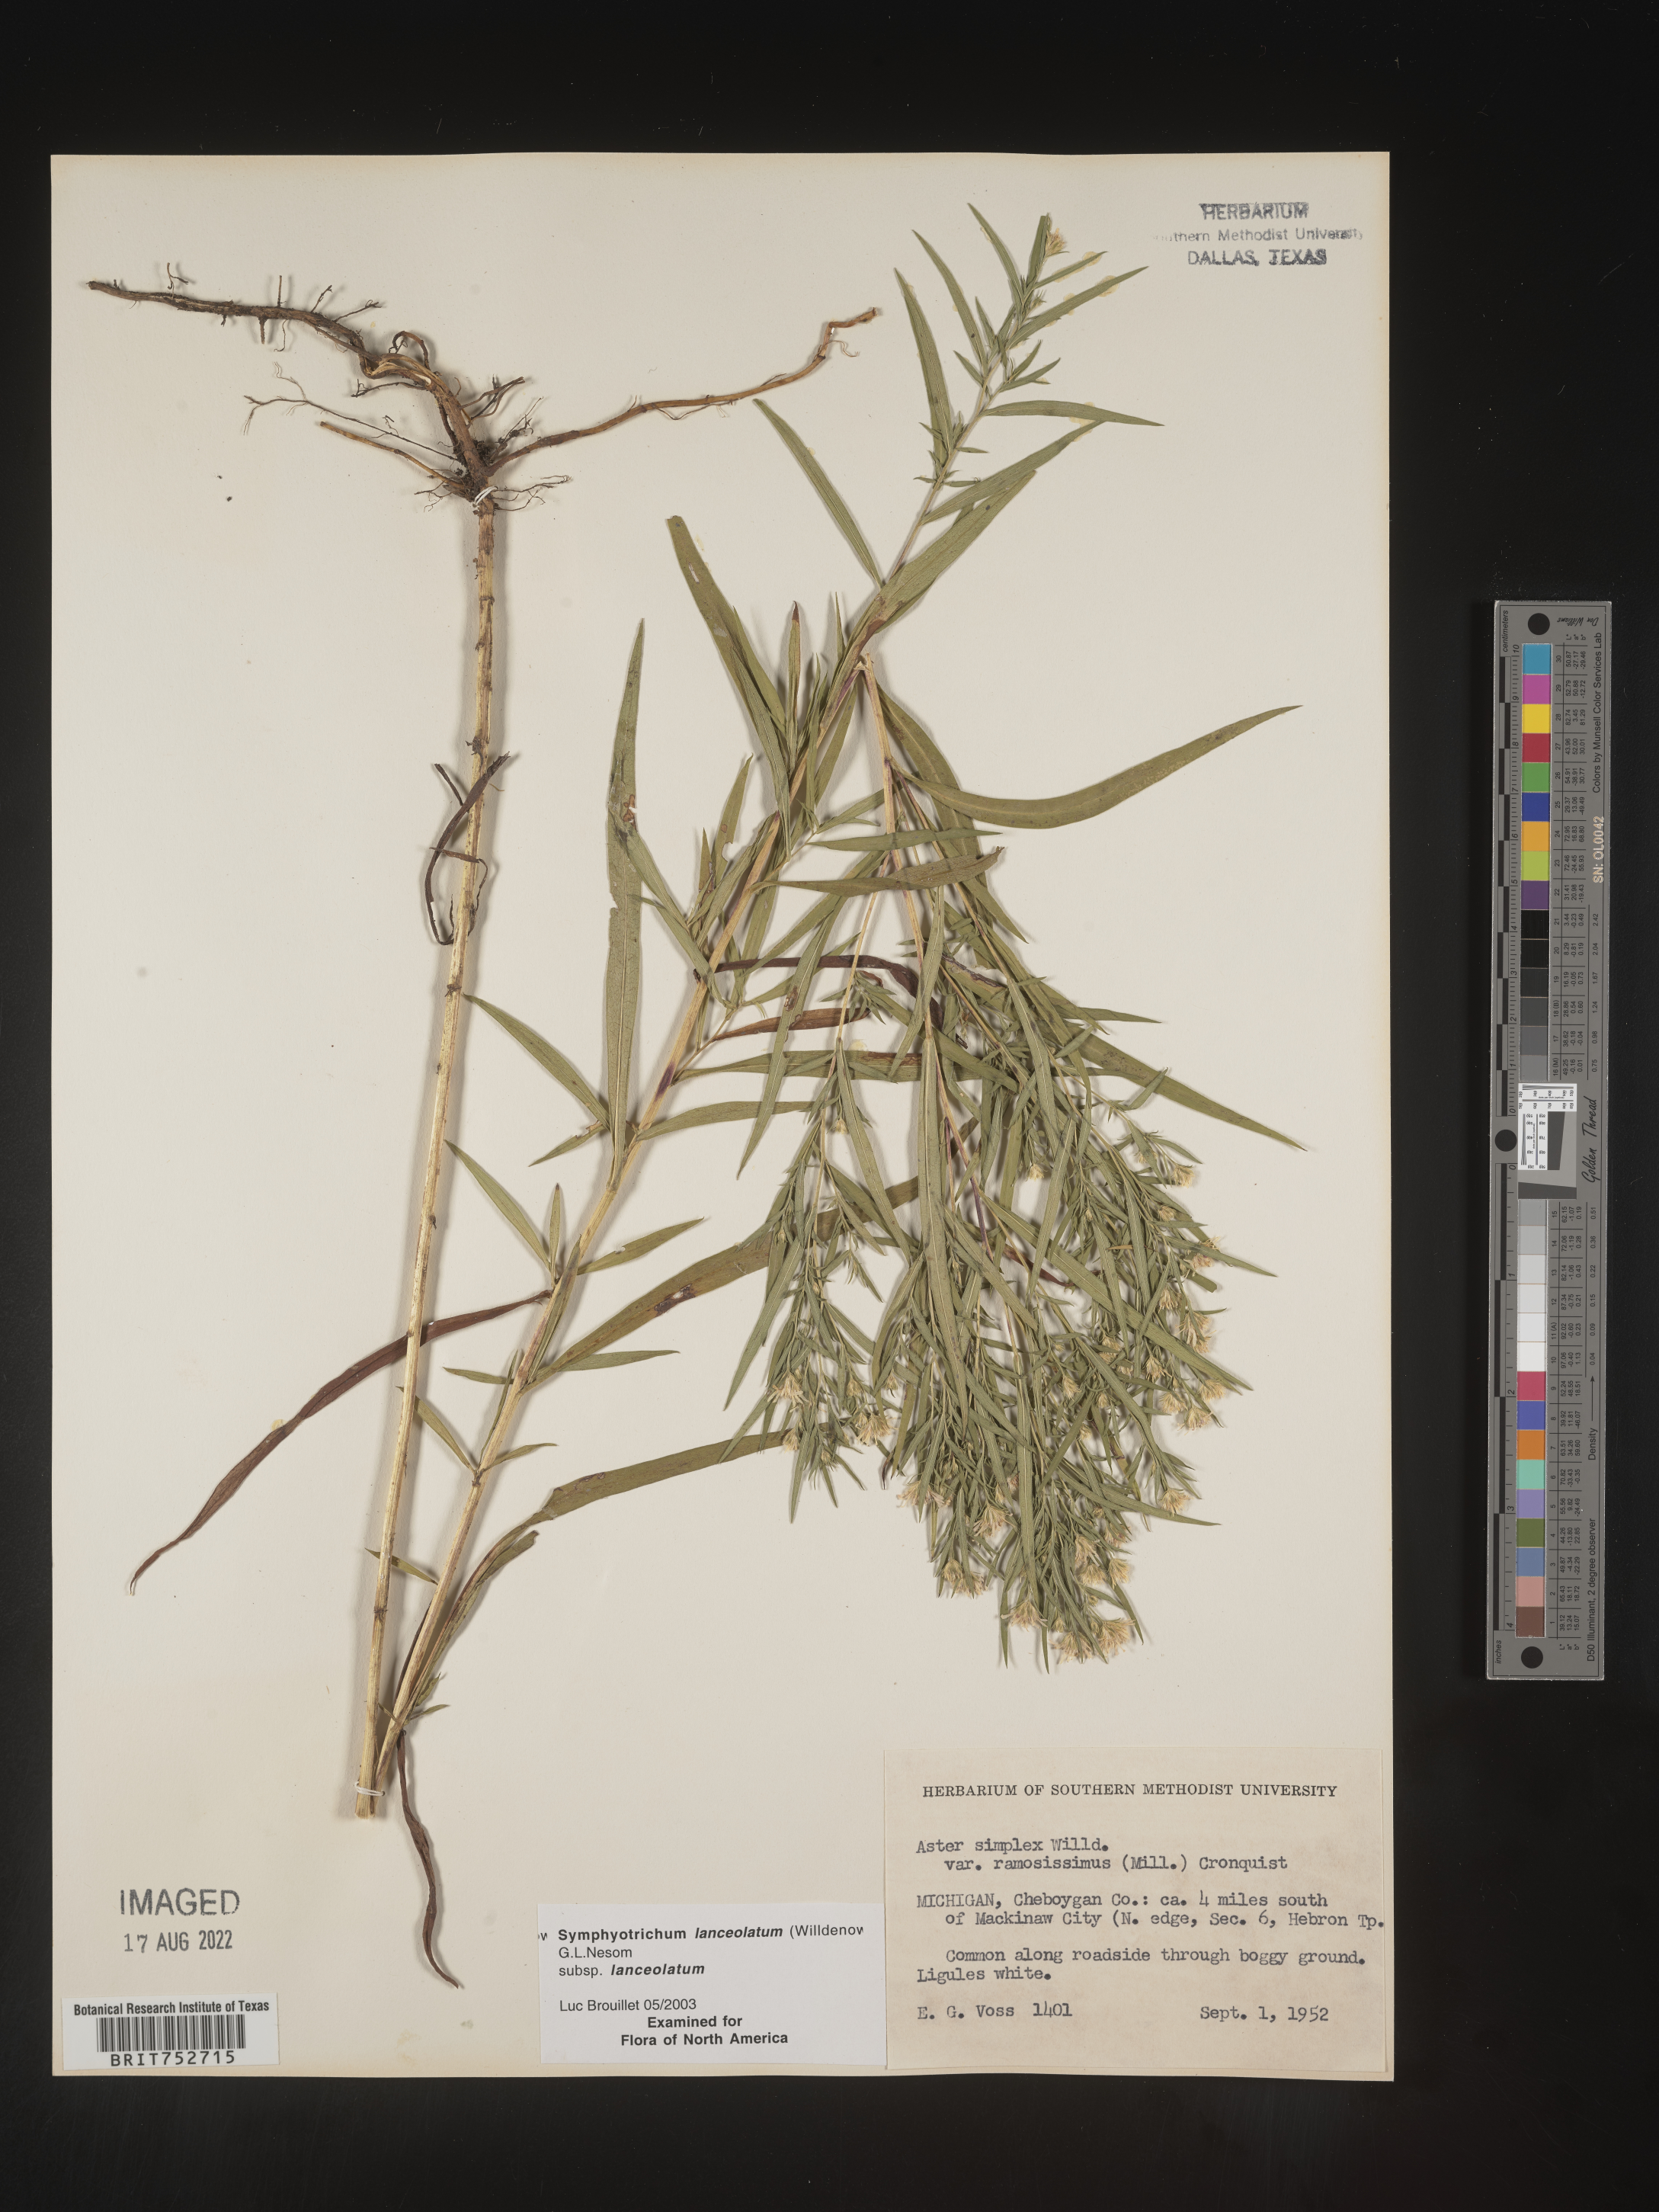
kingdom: Plantae
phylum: Tracheophyta
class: Magnoliopsida
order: Asterales
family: Asteraceae
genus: Symphyotrichum
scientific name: Symphyotrichum lanceolatum
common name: Panicled aster
